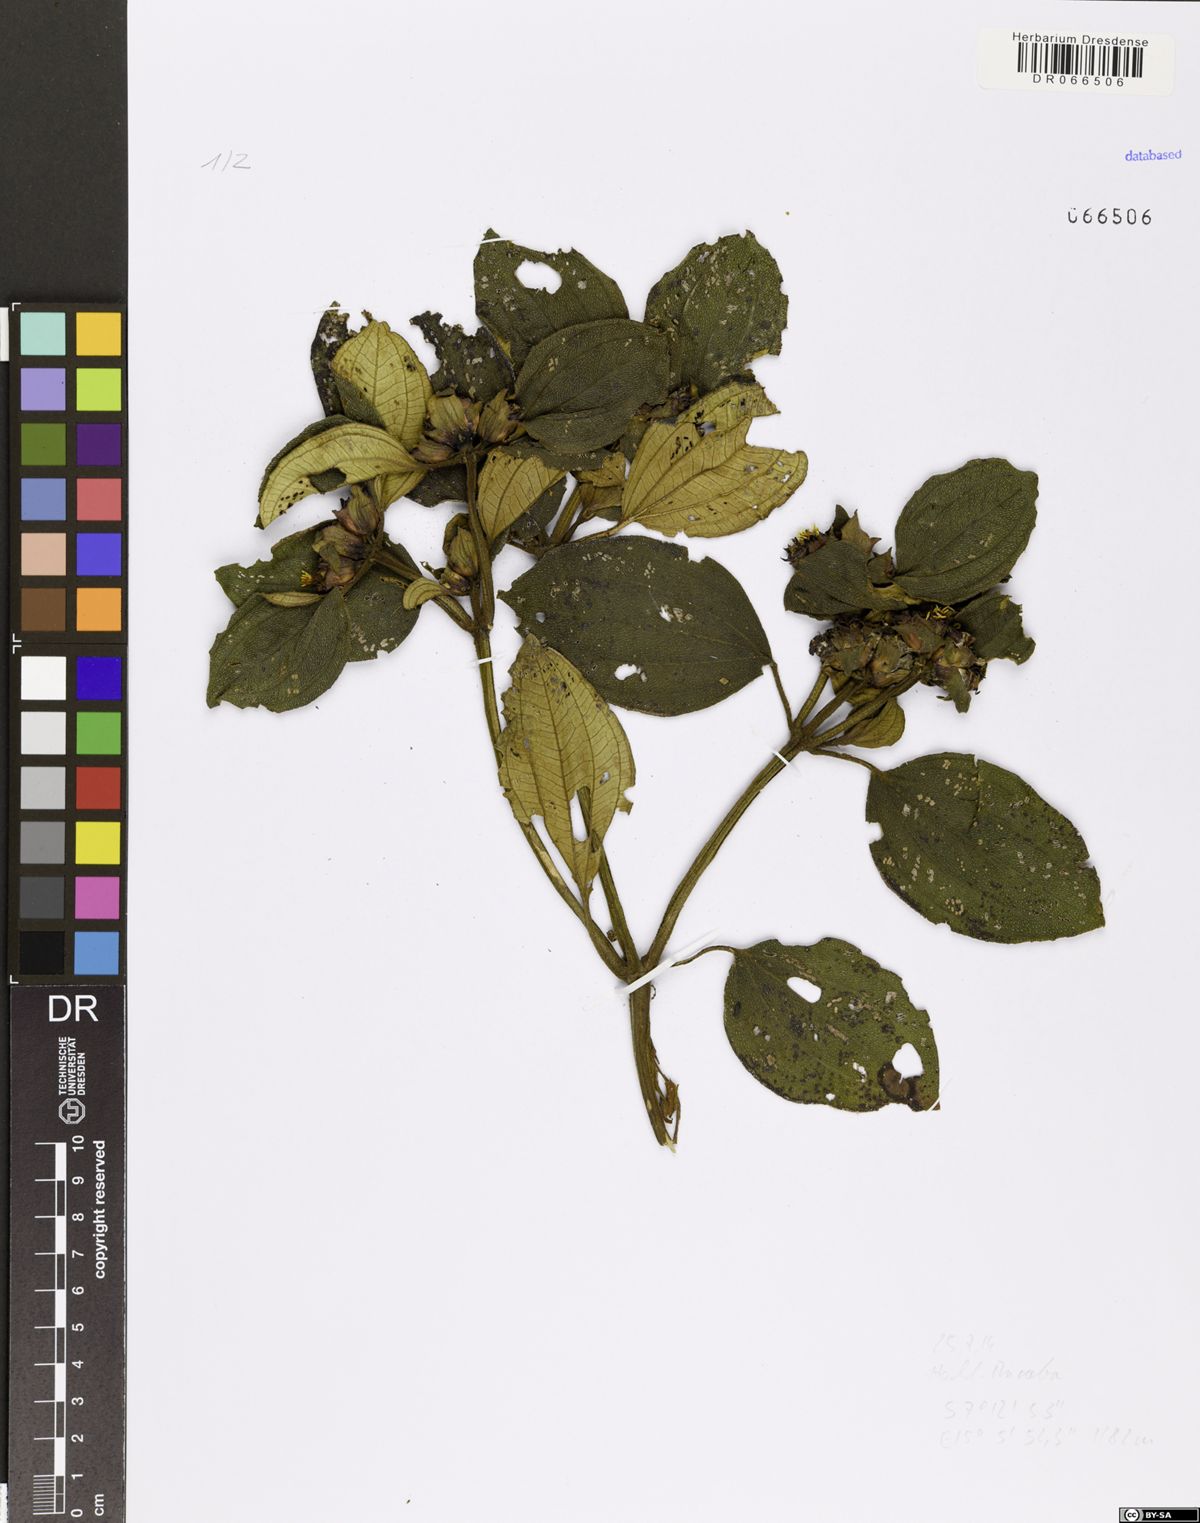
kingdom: Plantae
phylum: Tracheophyta
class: Magnoliopsida
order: Myrtales
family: Melastomataceae
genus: Tristemma
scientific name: Tristemma mauritianum
